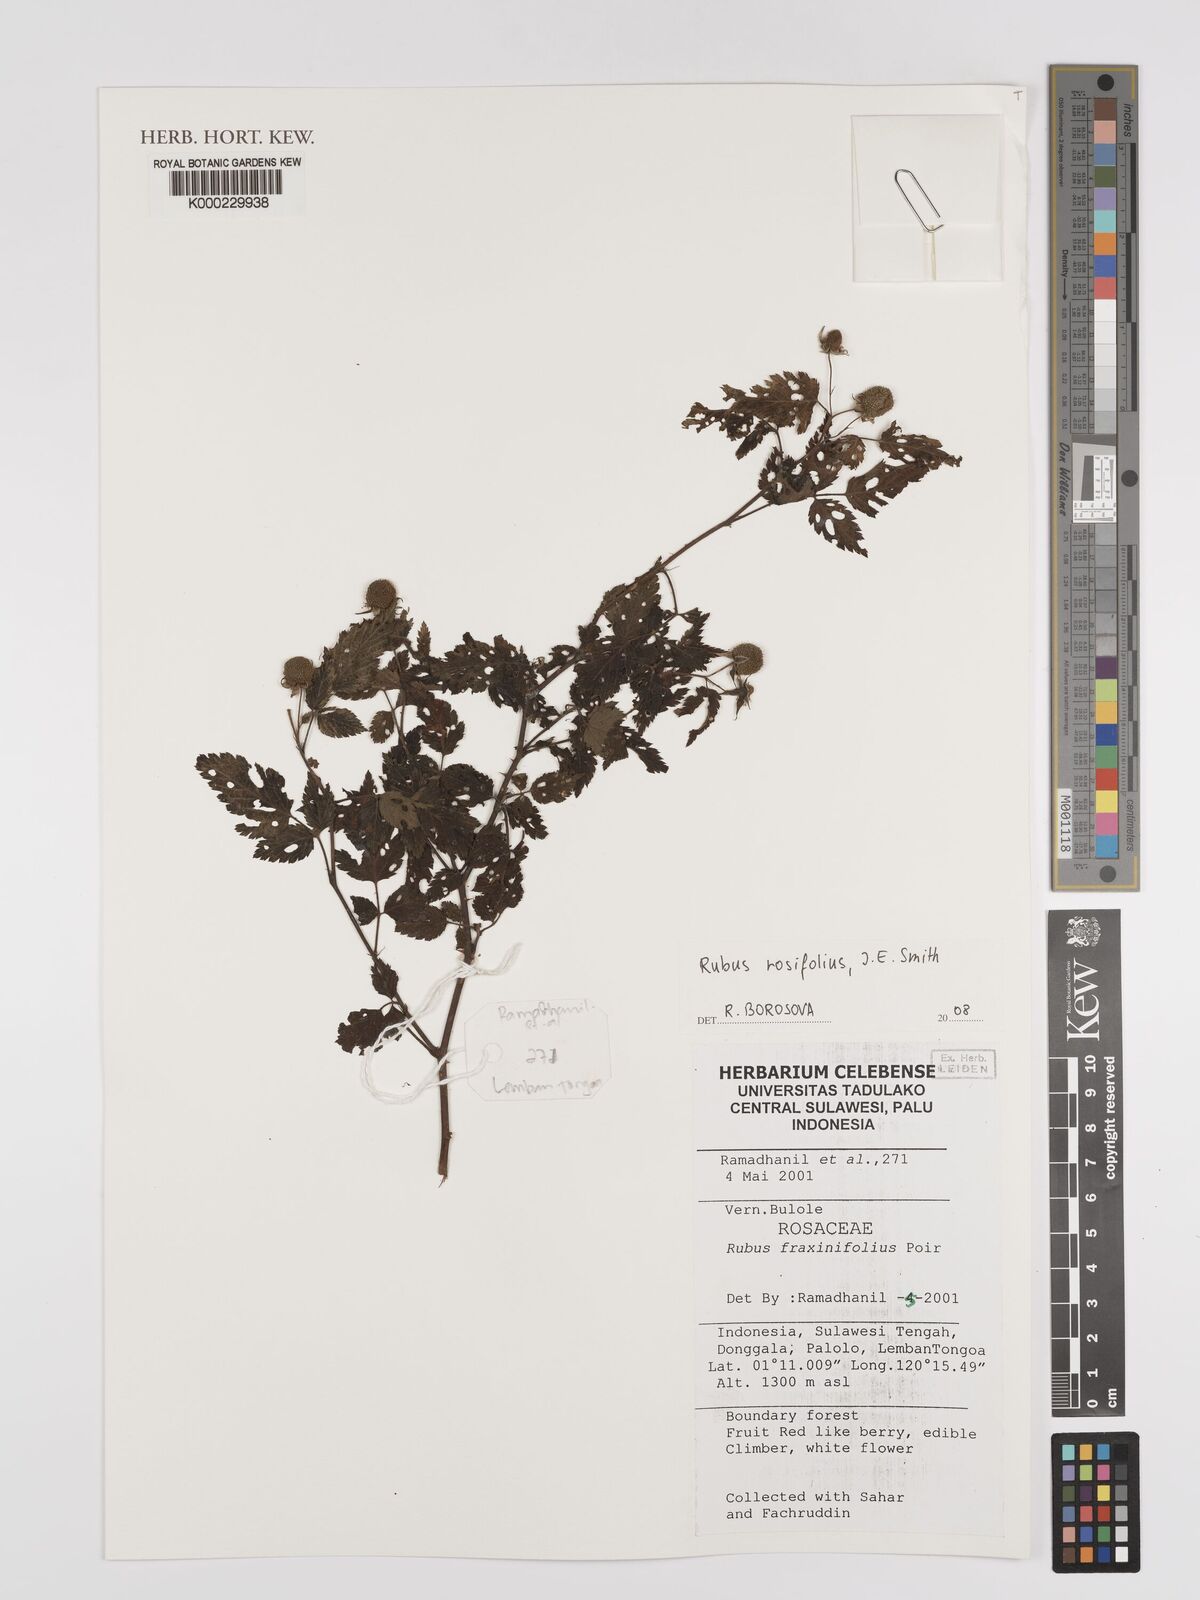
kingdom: Plantae
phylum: Tracheophyta
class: Magnoliopsida
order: Rosales
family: Rosaceae
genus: Rubus
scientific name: Rubus
